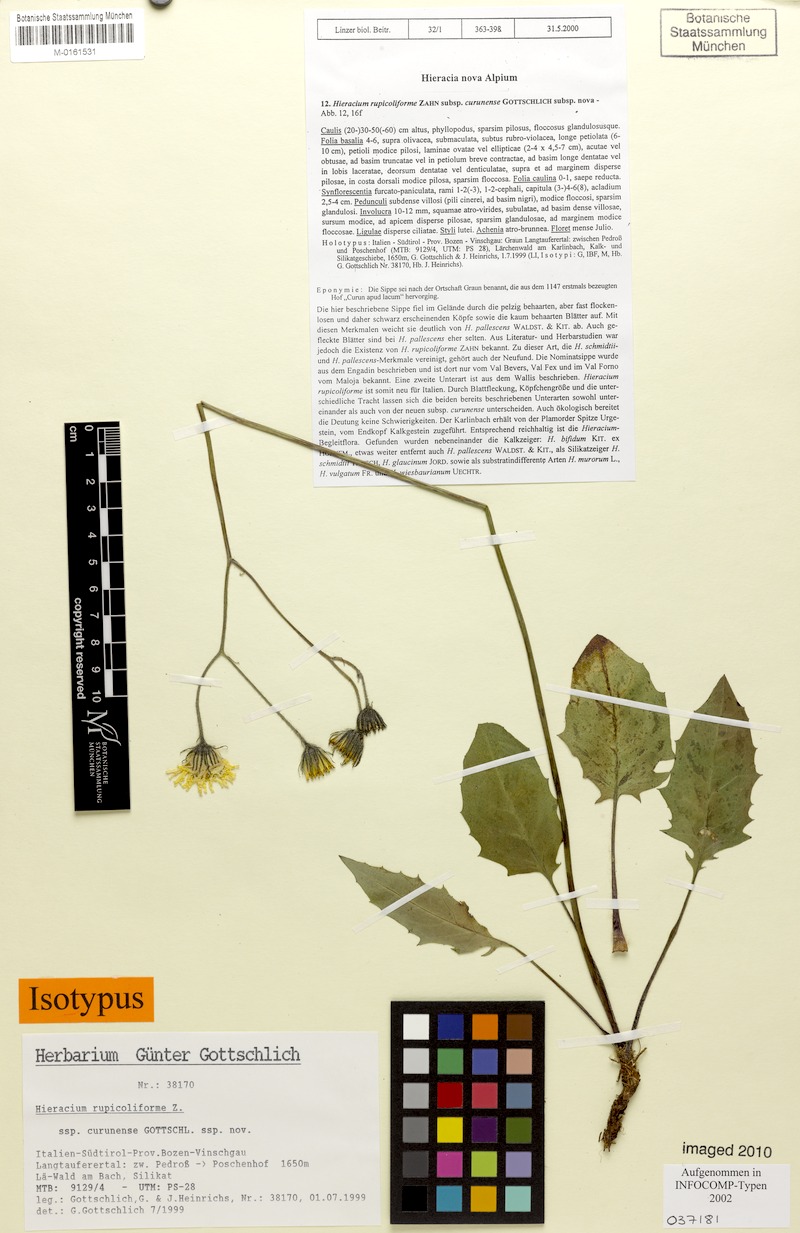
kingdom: Plantae
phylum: Tracheophyta
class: Magnoliopsida
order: Asterales
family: Asteraceae
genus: Hieracium
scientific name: Hieracium rupicoliforme
